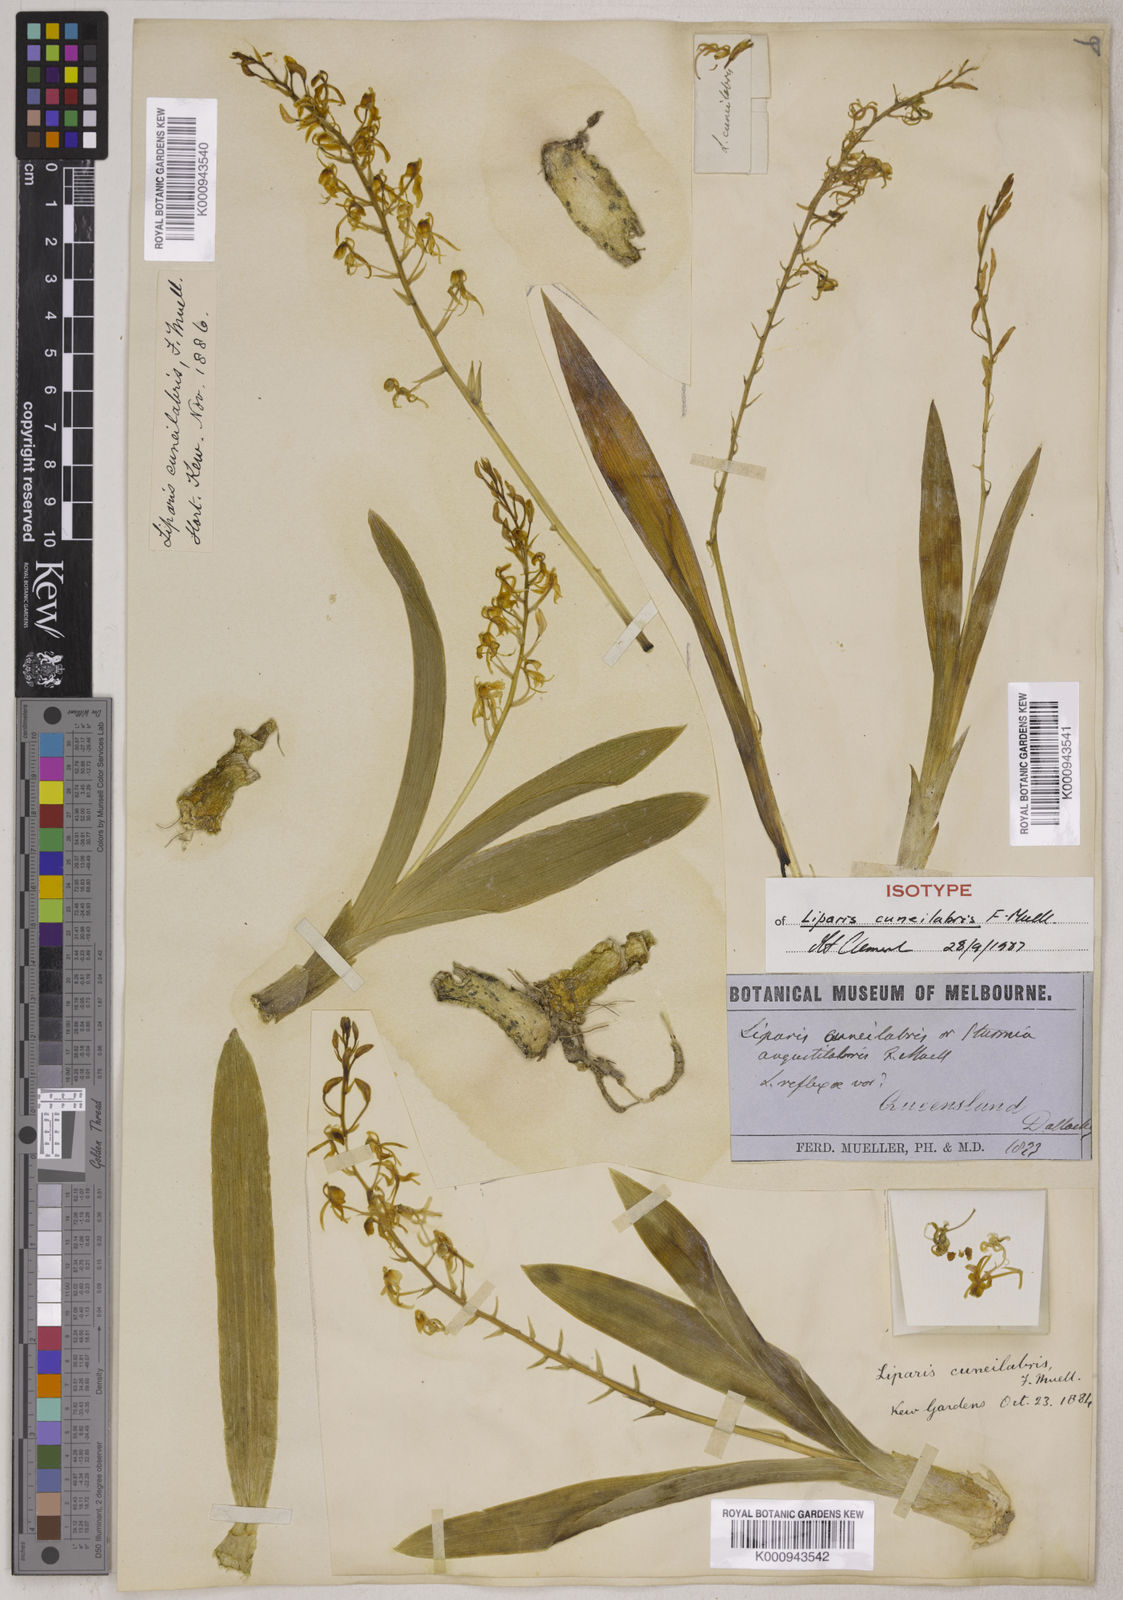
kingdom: Plantae
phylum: Tracheophyta
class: Liliopsida
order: Asparagales
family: Orchidaceae
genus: Liparis
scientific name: Liparis angustilabris
